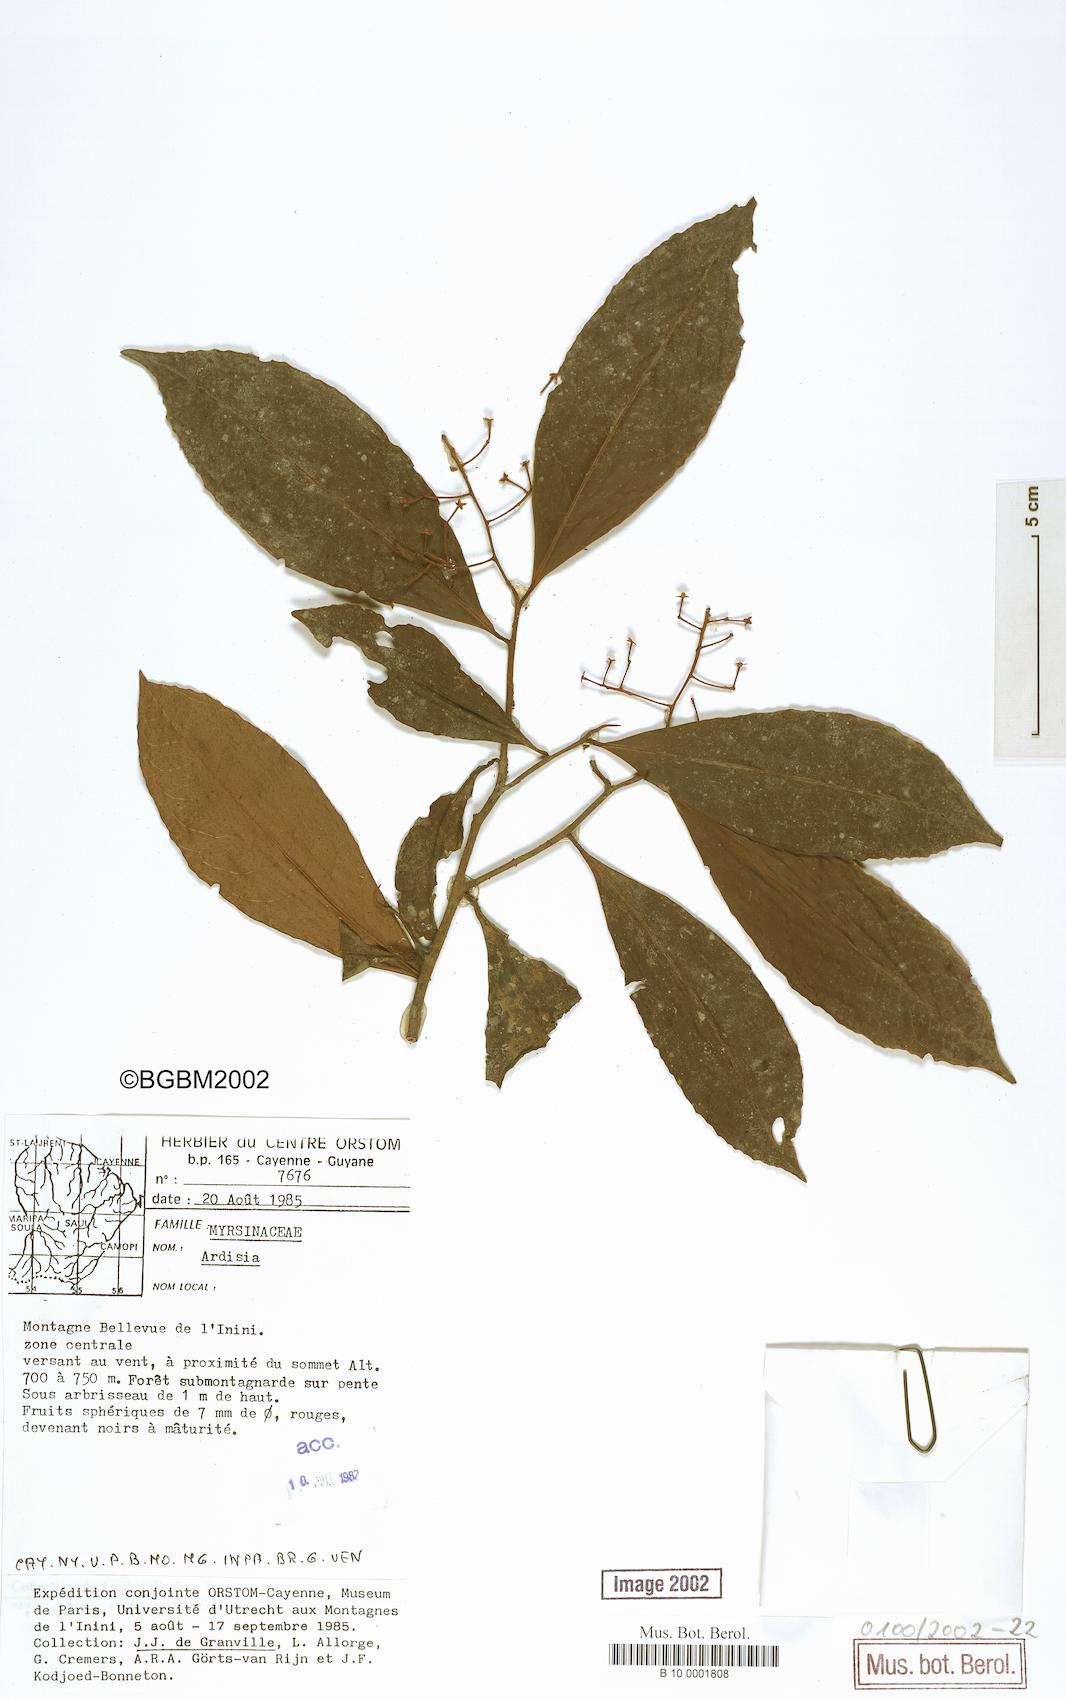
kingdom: Plantae
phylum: Tracheophyta
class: Magnoliopsida
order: Ericales
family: Primulaceae
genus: Ardisia
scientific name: Ardisia
